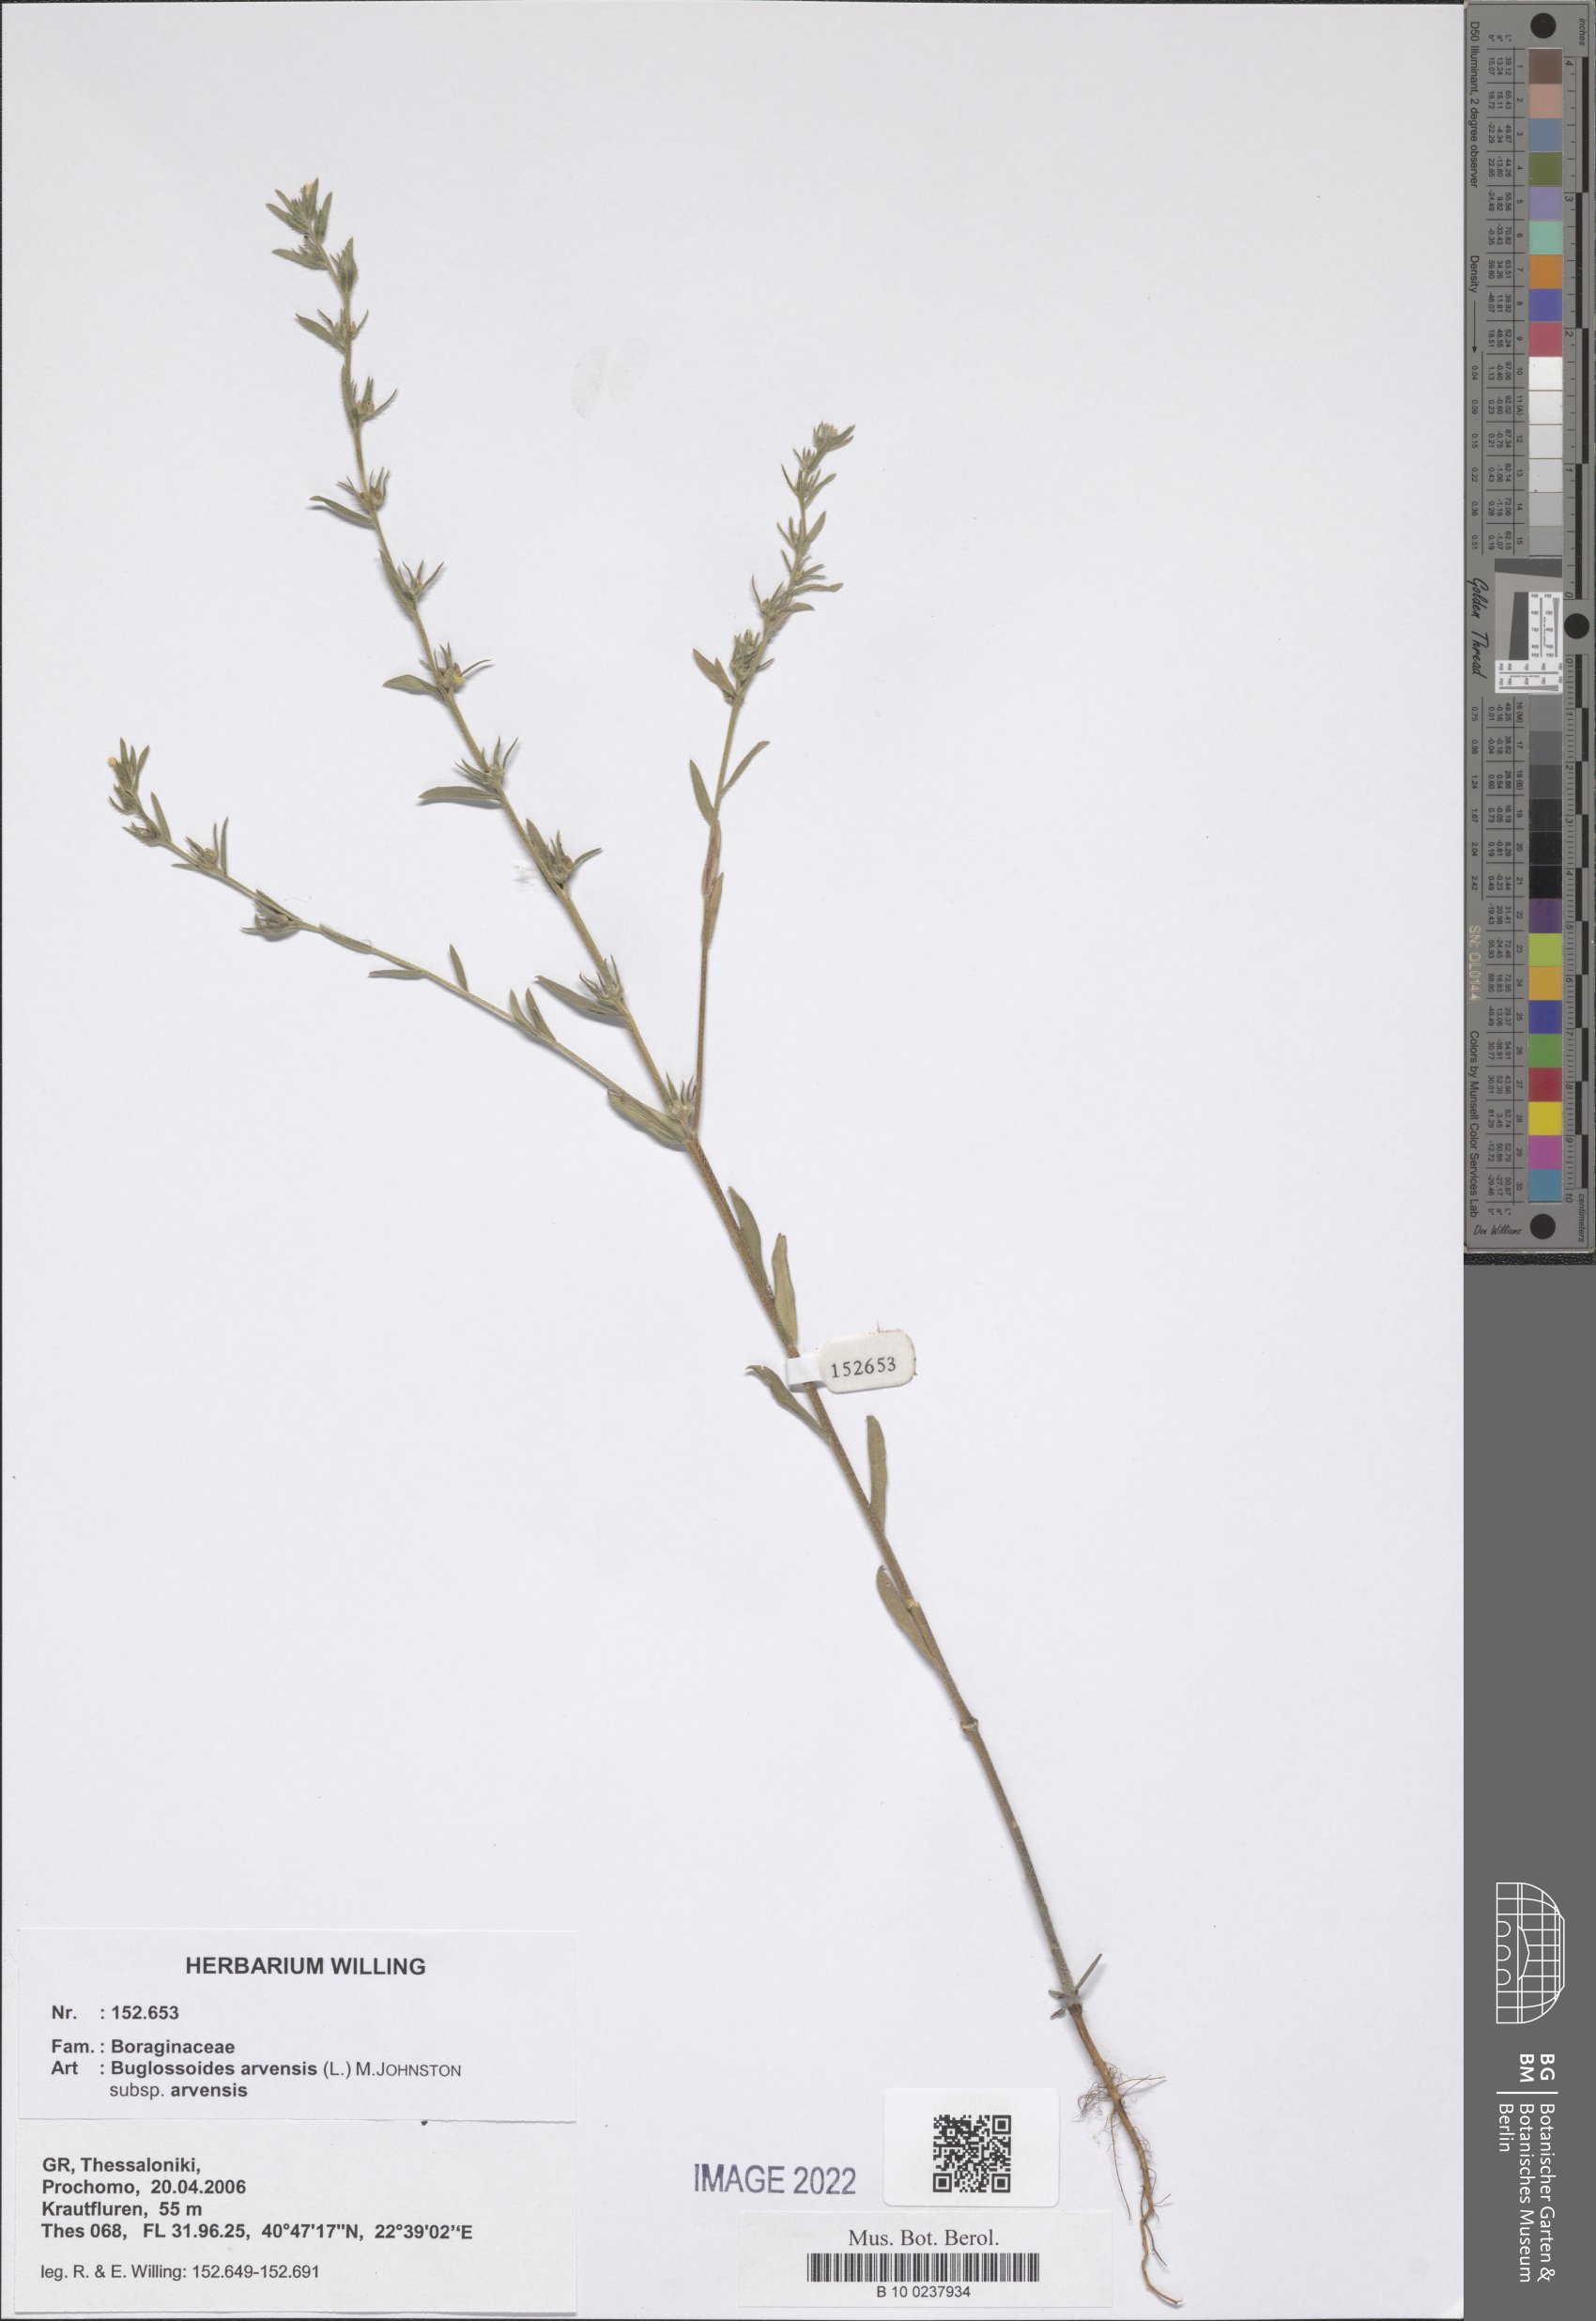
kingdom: Plantae
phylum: Tracheophyta
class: Magnoliopsida
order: Boraginales
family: Boraginaceae
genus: Buglossoides
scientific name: Buglossoides arvensis
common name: Corn gromwell
